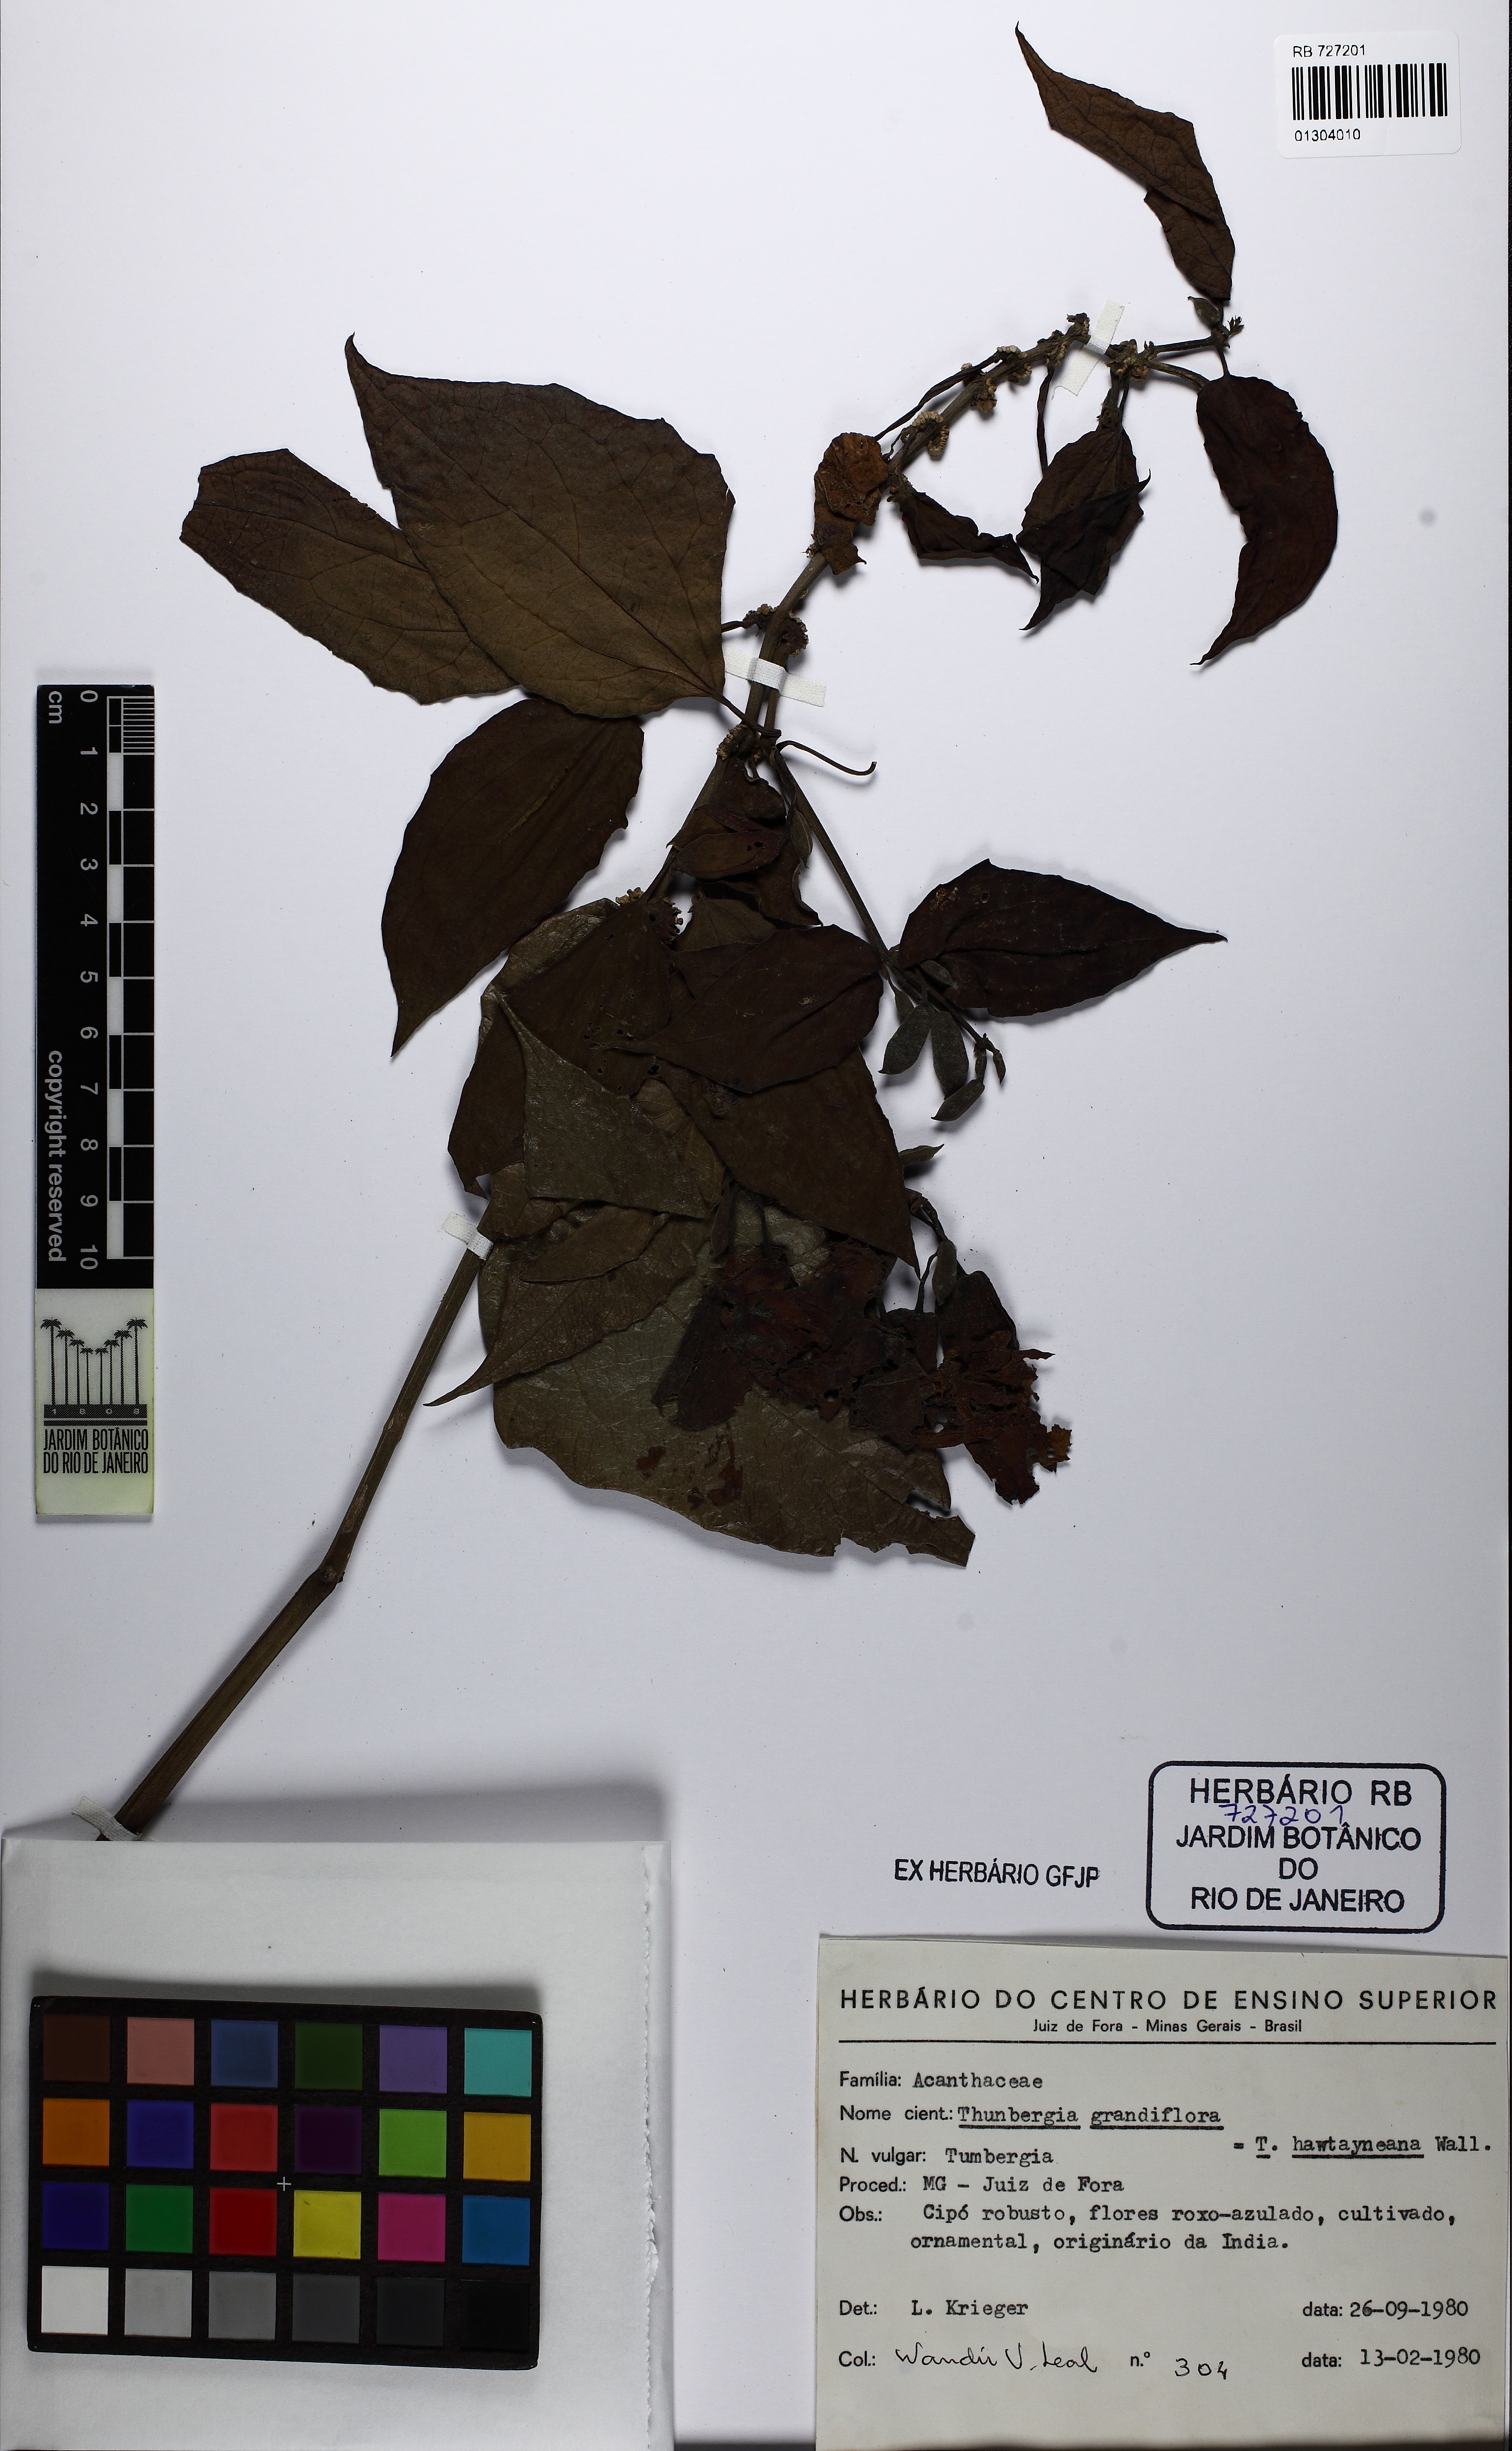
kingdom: Plantae
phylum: Tracheophyta
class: Magnoliopsida
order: Lamiales
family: Acanthaceae
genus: Thunbergia
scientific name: Thunbergia grandiflora
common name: Bengal trumpet
